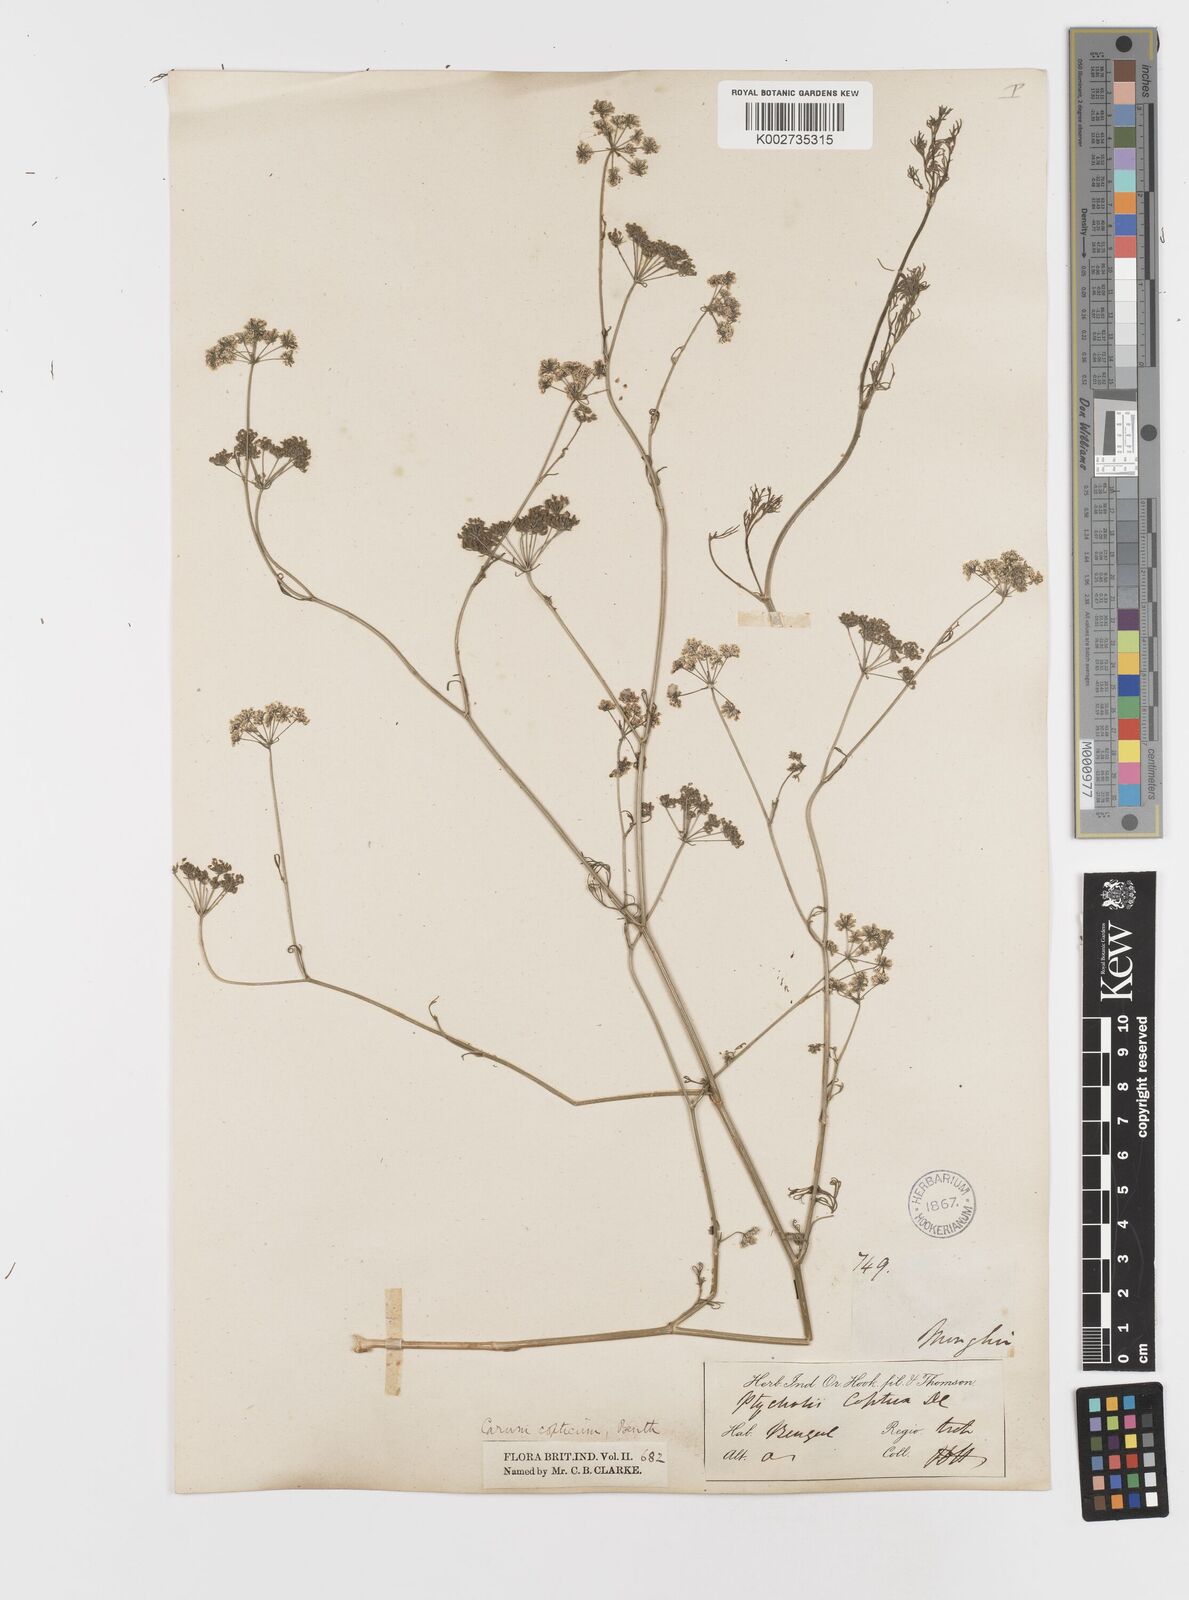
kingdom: Plantae
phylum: Tracheophyta
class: Magnoliopsida
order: Apiales
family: Apiaceae
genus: Trachyspermum
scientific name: Trachyspermum ammi
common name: Ajowan
